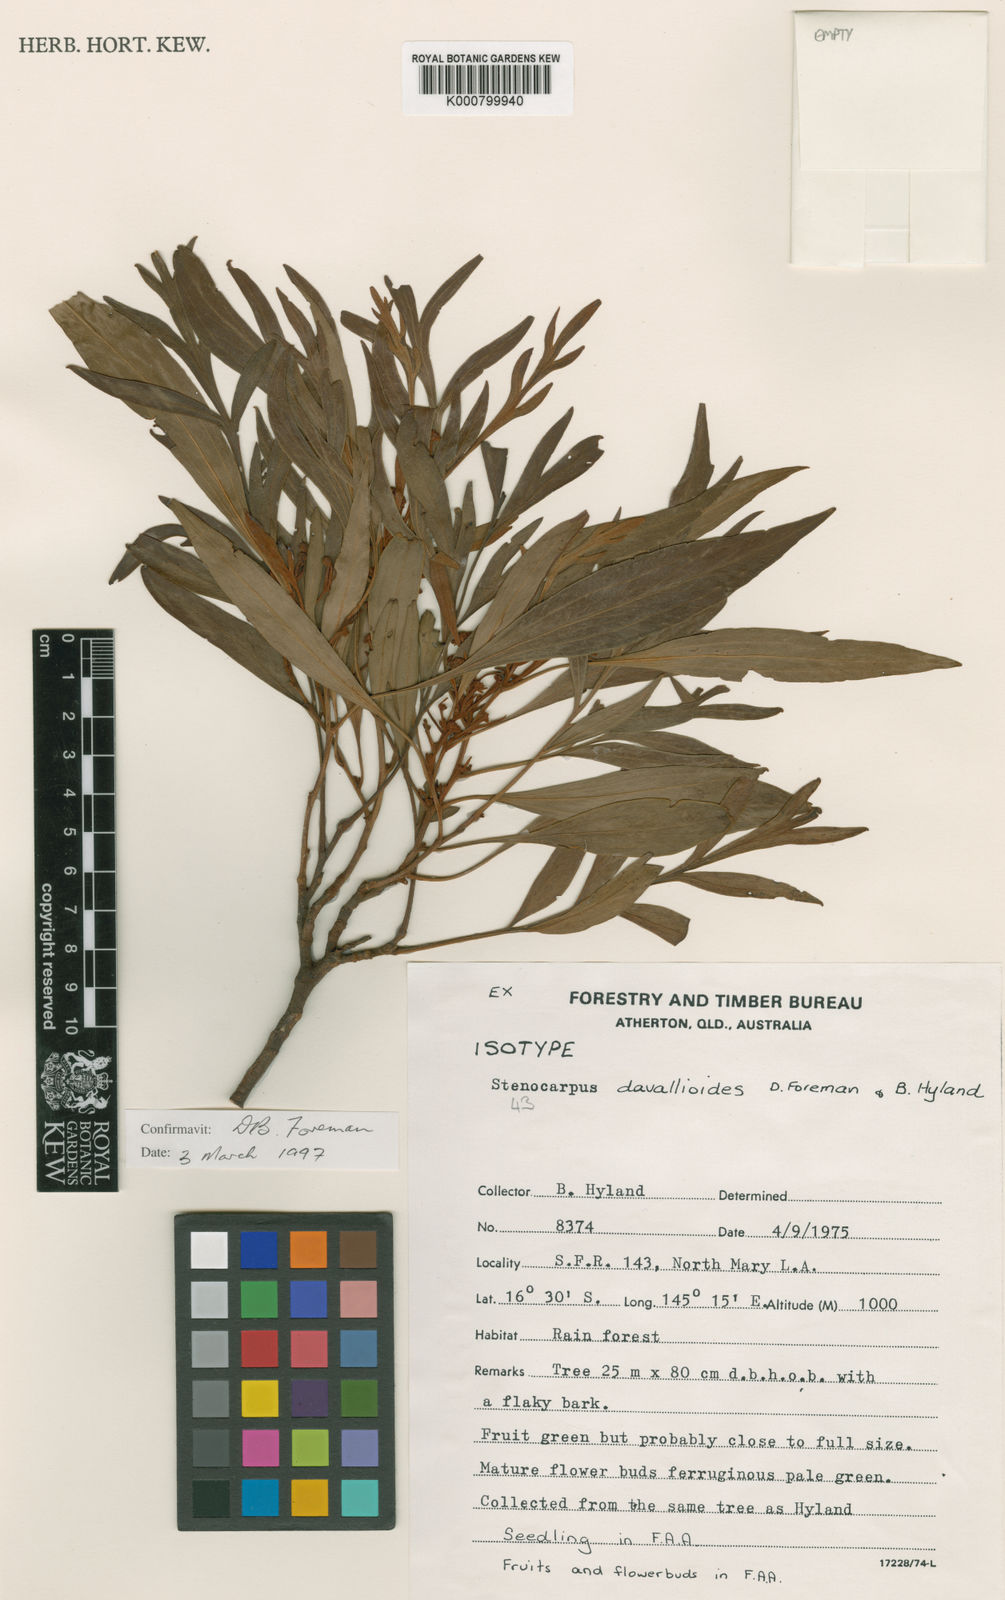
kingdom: Plantae
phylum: Tracheophyta
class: Magnoliopsida
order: Proteales
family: Proteaceae
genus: Stenocarpus
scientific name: Stenocarpus davallioides
